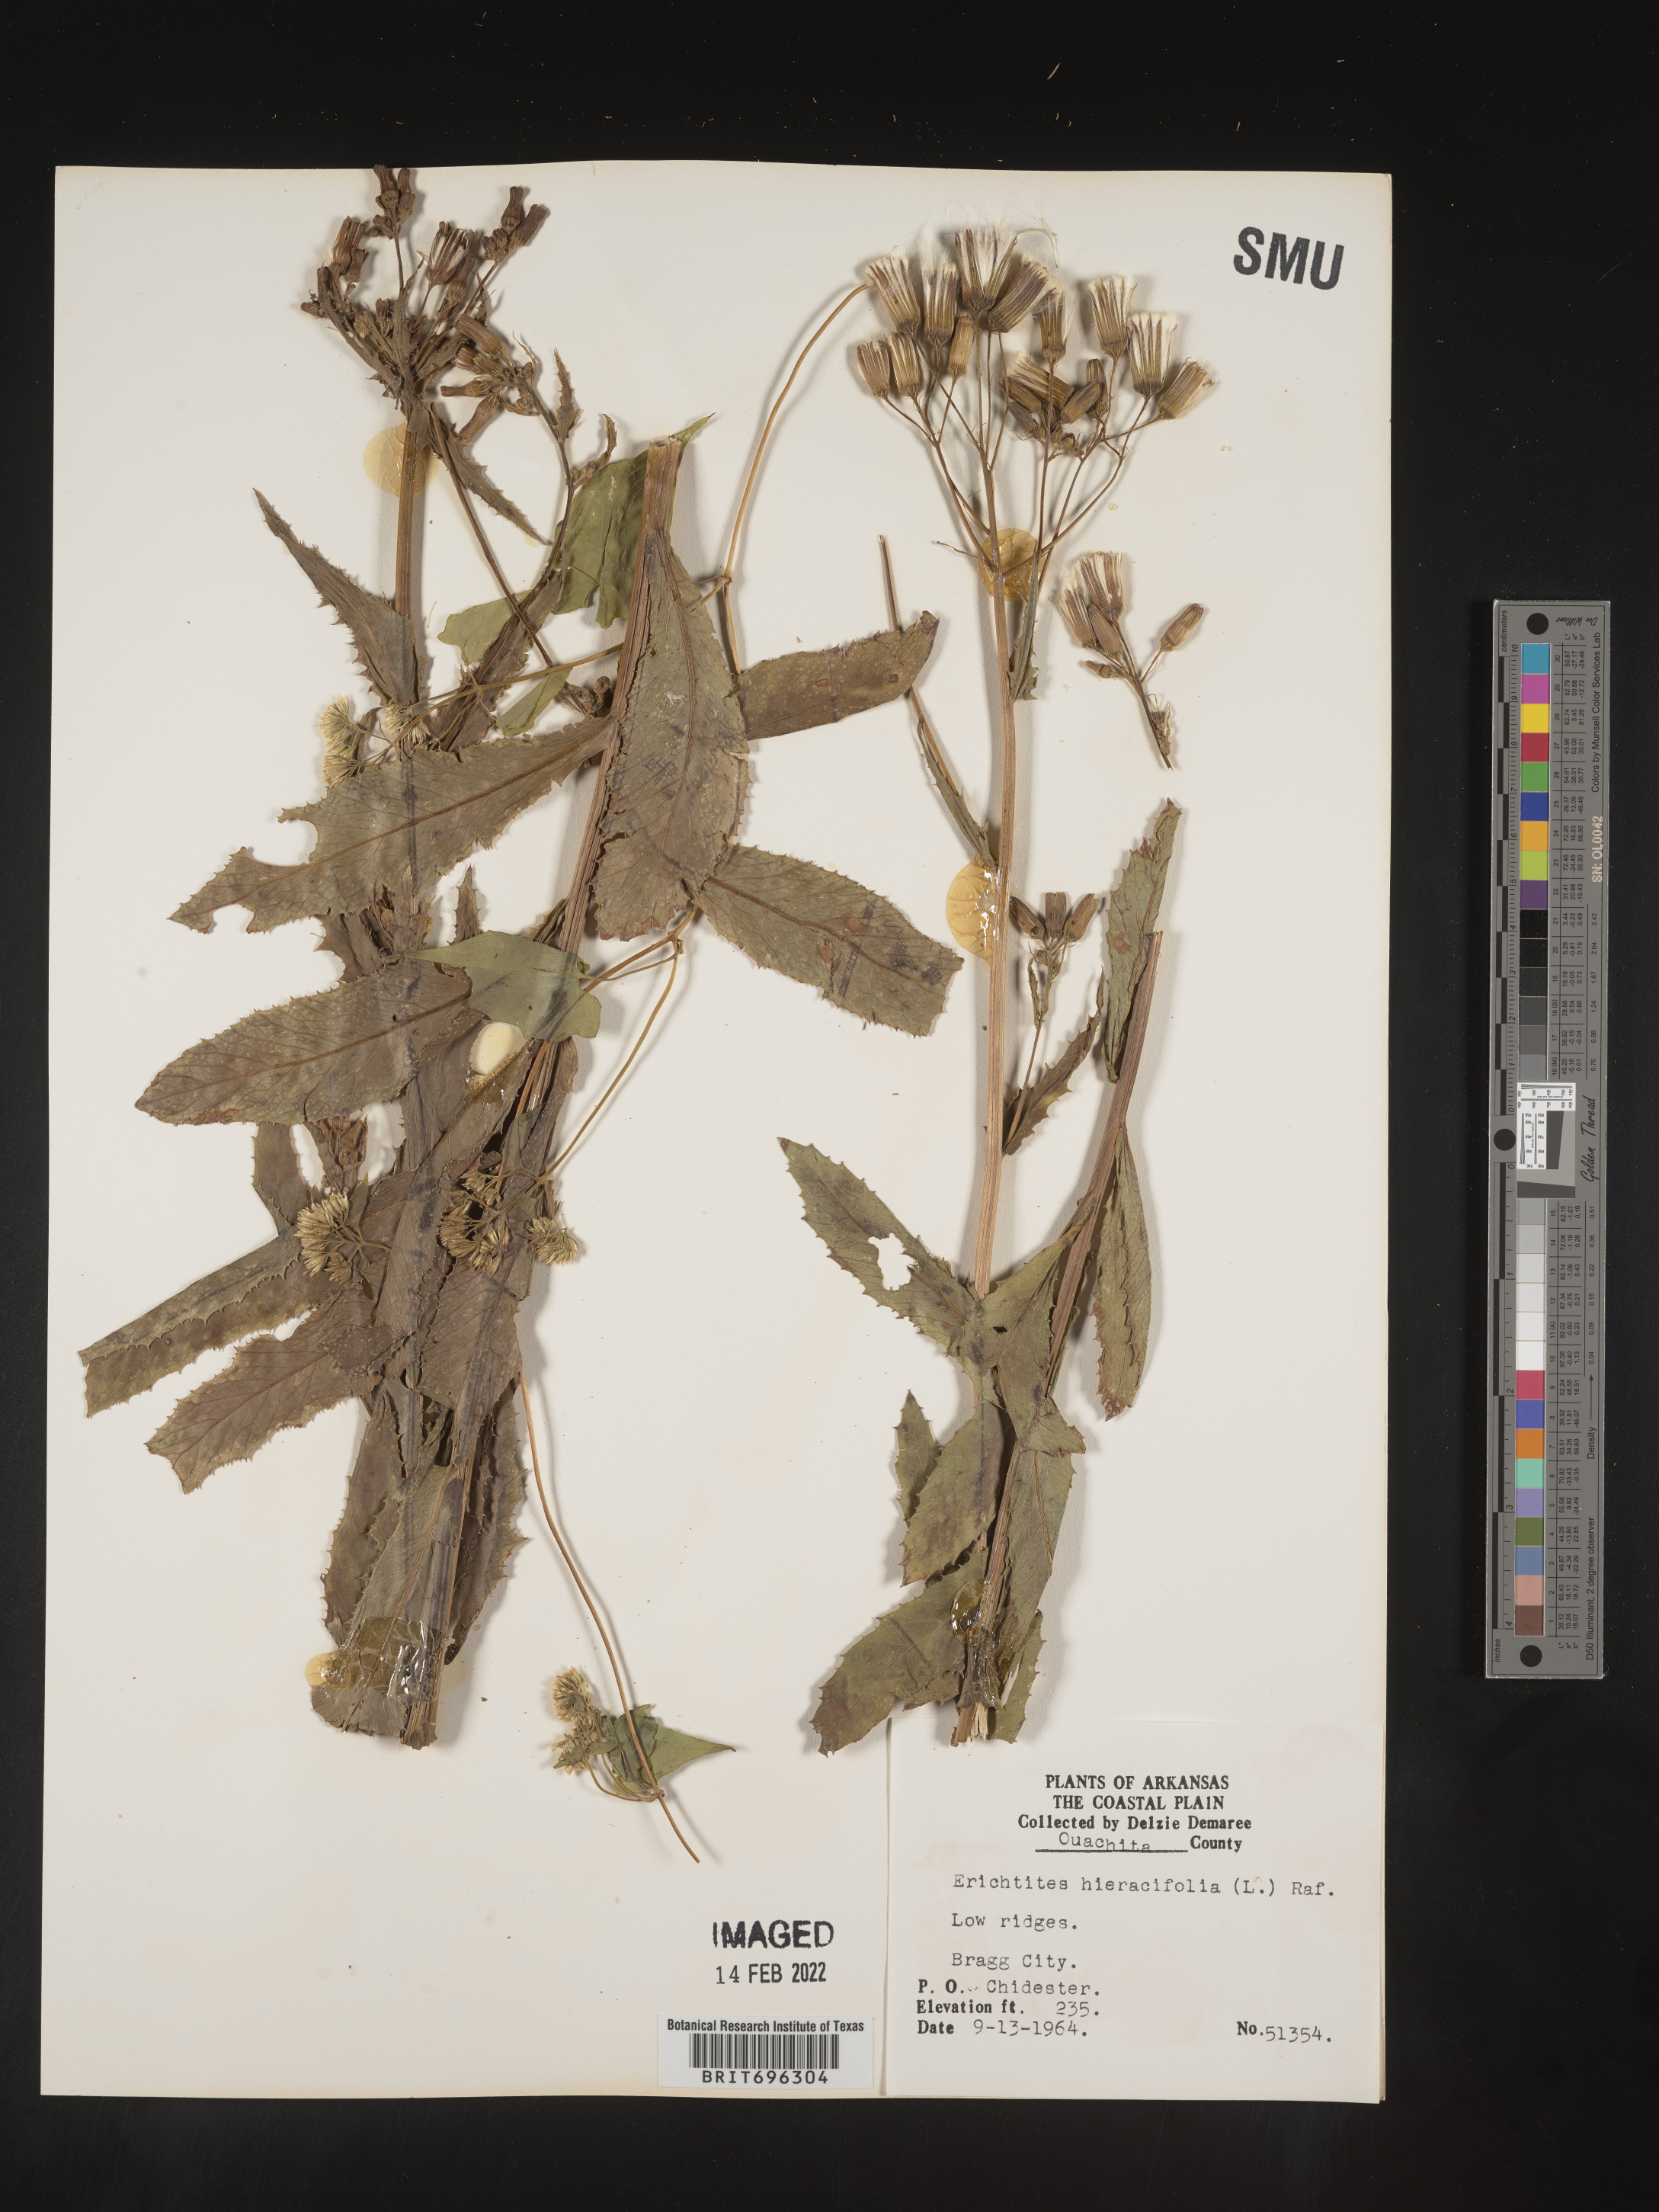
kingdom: Plantae
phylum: Tracheophyta
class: Magnoliopsida
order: Asterales
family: Asteraceae
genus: Erechtites
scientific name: Erechtites hieraciifolius
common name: American burnweed
